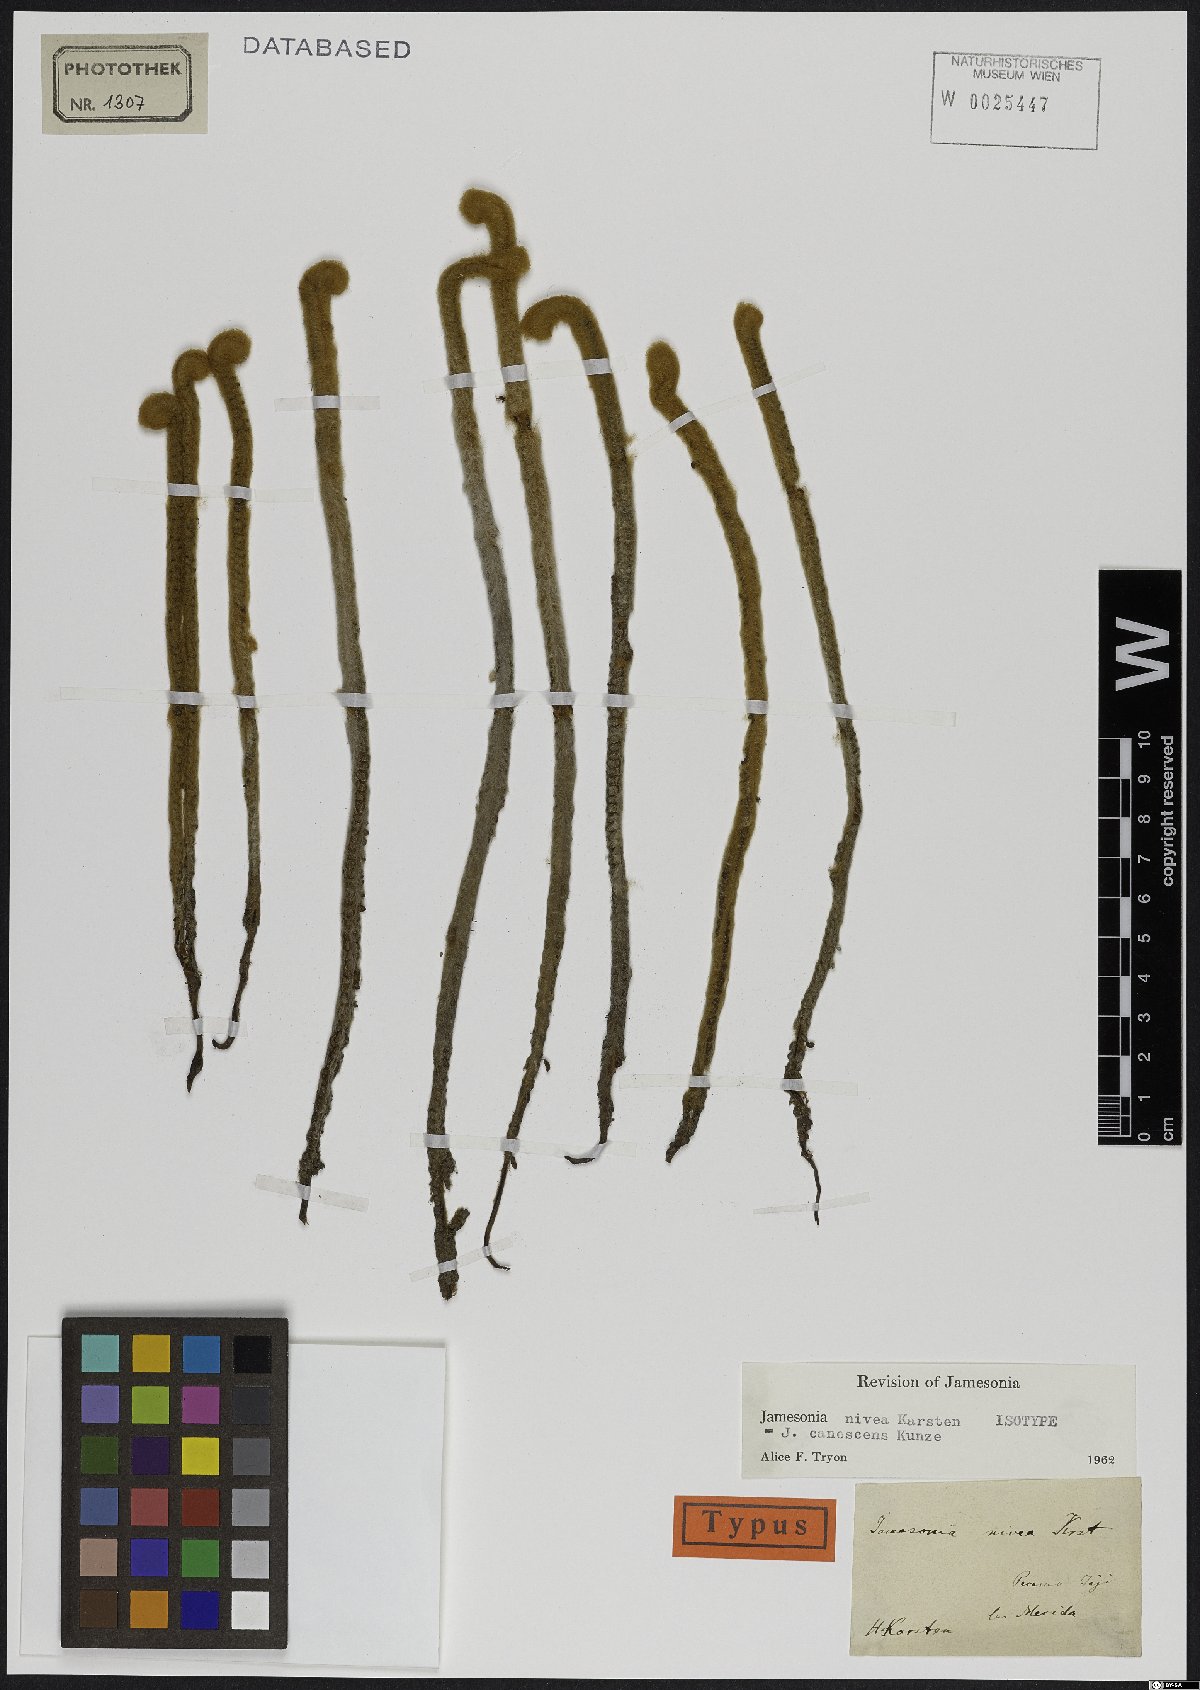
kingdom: Plantae
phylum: Tracheophyta
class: Polypodiopsida
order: Polypodiales
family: Pteridaceae
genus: Jamesonia
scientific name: Jamesonia canescens
